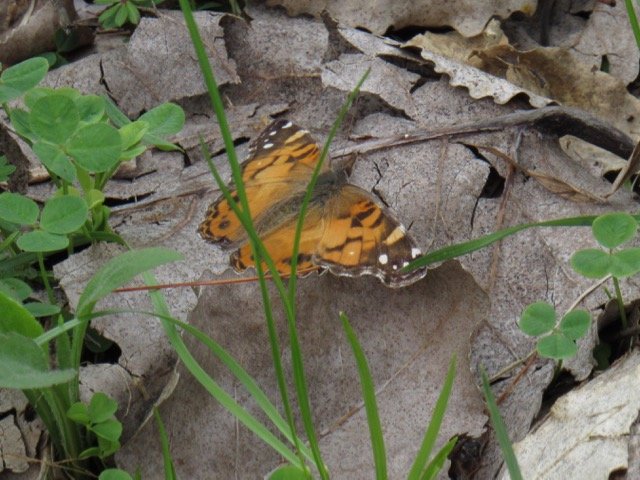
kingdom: Animalia
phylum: Arthropoda
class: Insecta
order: Lepidoptera
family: Nymphalidae
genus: Vanessa
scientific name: Vanessa virginiensis
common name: American Lady
